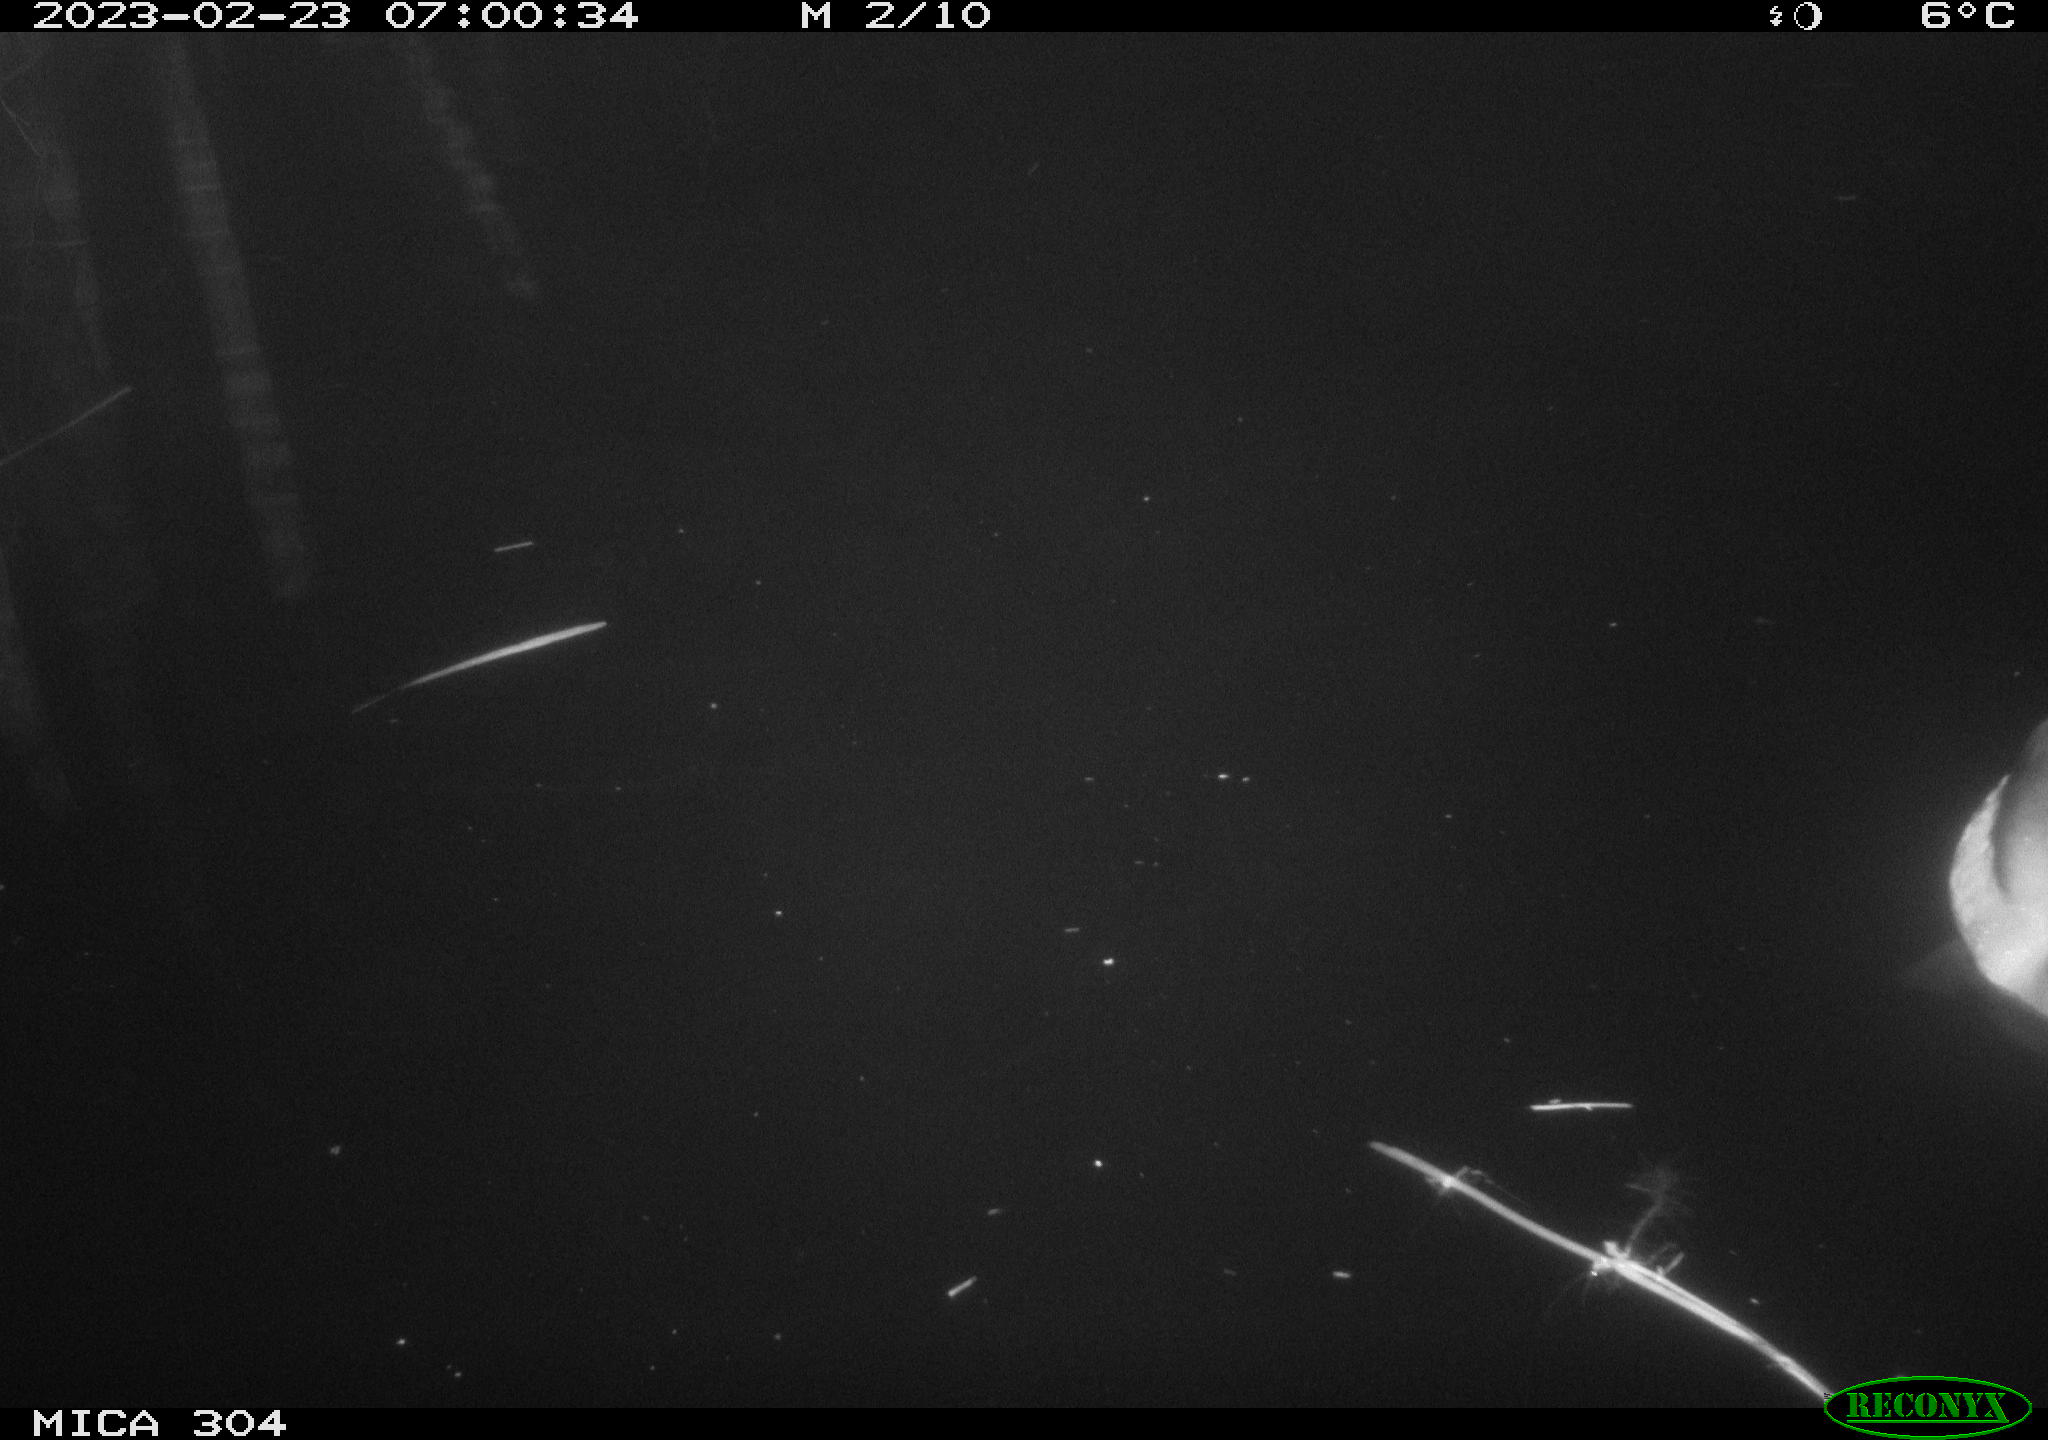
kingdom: Animalia
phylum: Chordata
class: Aves
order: Anseriformes
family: Anatidae
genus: Anas
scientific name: Anas
